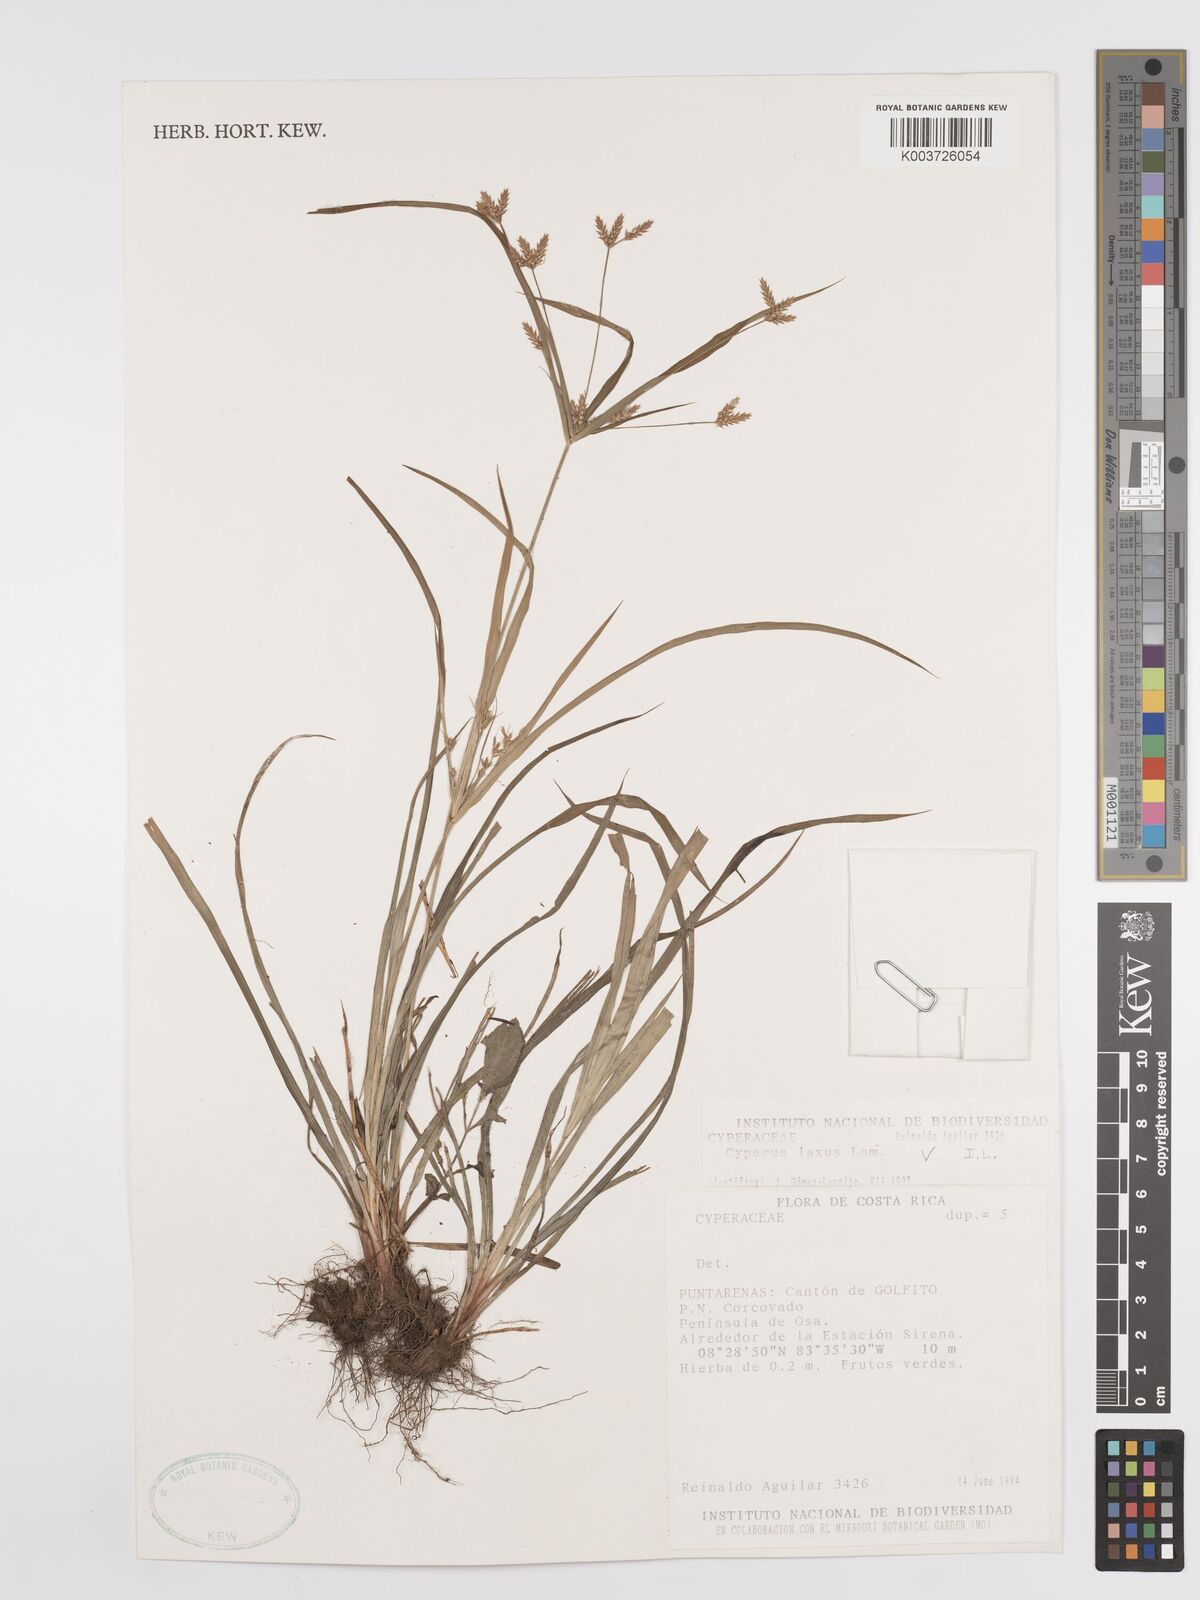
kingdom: Plantae
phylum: Tracheophyta
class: Liliopsida
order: Poales
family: Cyperaceae
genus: Cyperus
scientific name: Cyperus laxus
